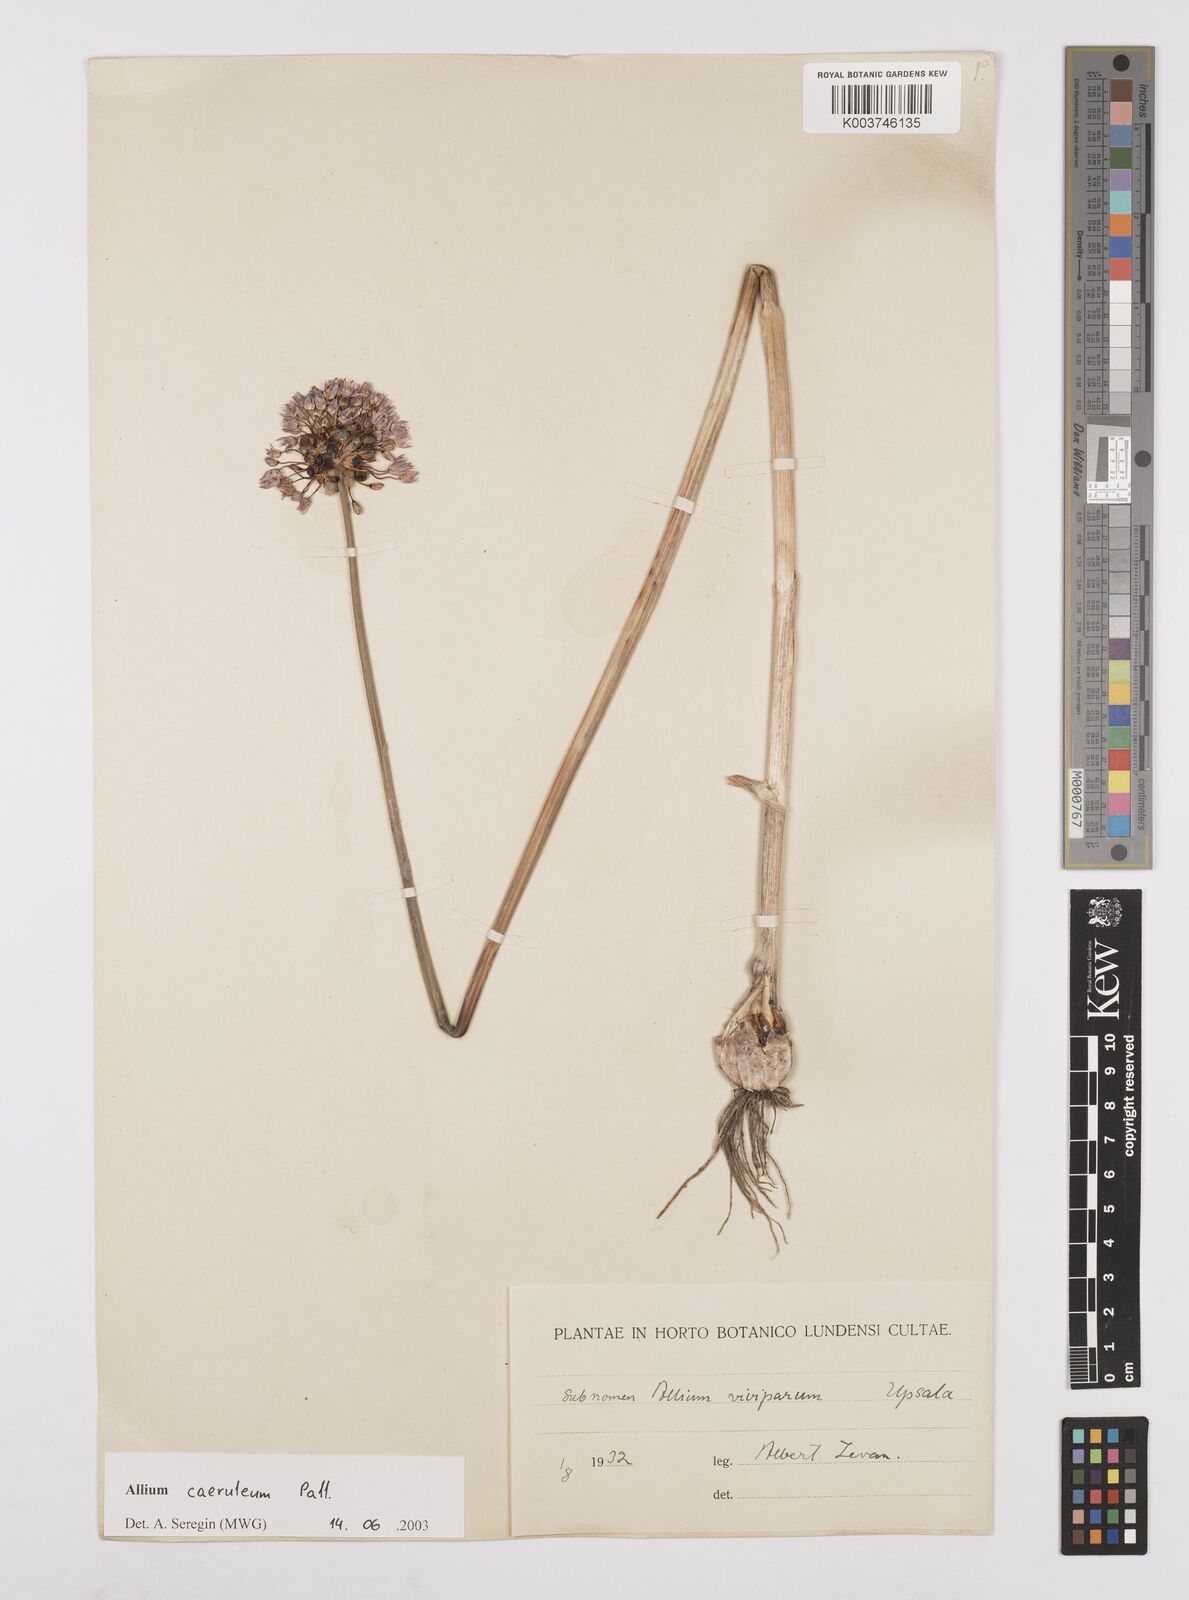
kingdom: Plantae
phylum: Tracheophyta
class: Liliopsida
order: Asparagales
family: Amaryllidaceae
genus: Allium
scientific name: Allium caeruleum
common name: Blue-of-the-heavens
